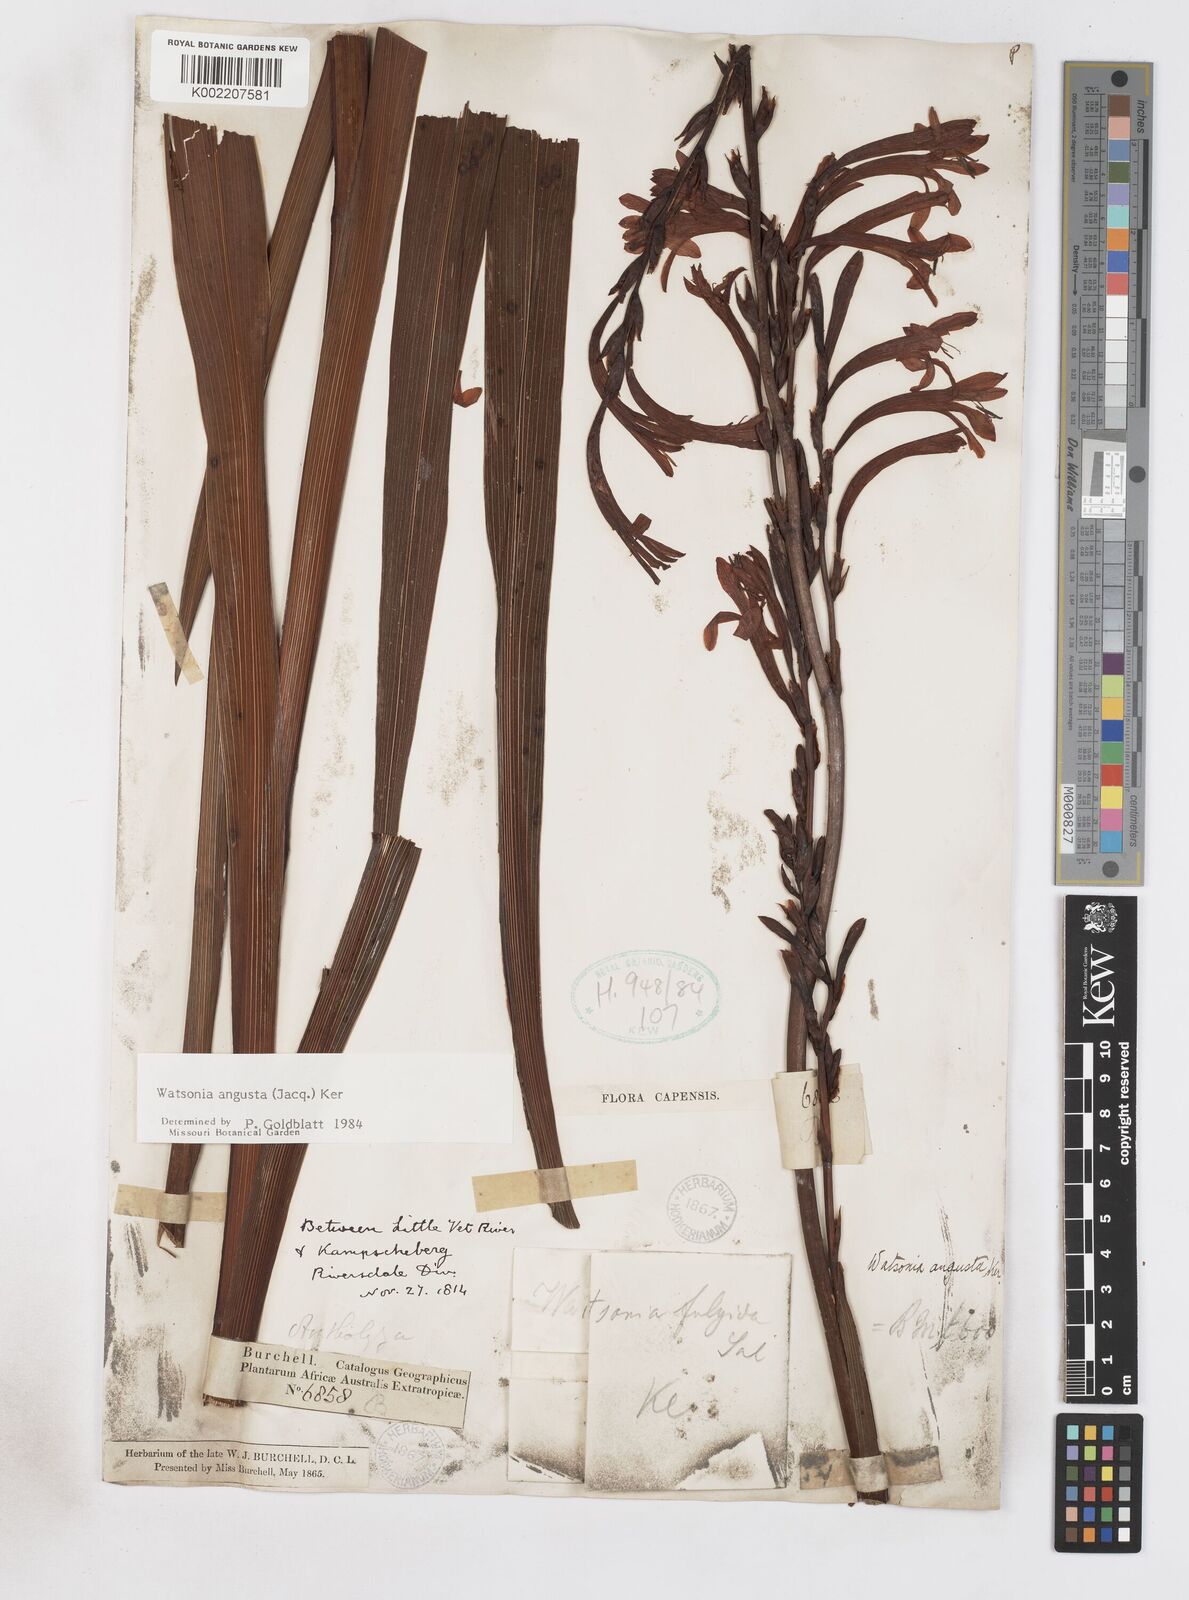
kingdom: Plantae
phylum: Tracheophyta
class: Liliopsida
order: Asparagales
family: Iridaceae
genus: Watsonia
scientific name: Watsonia angusta
